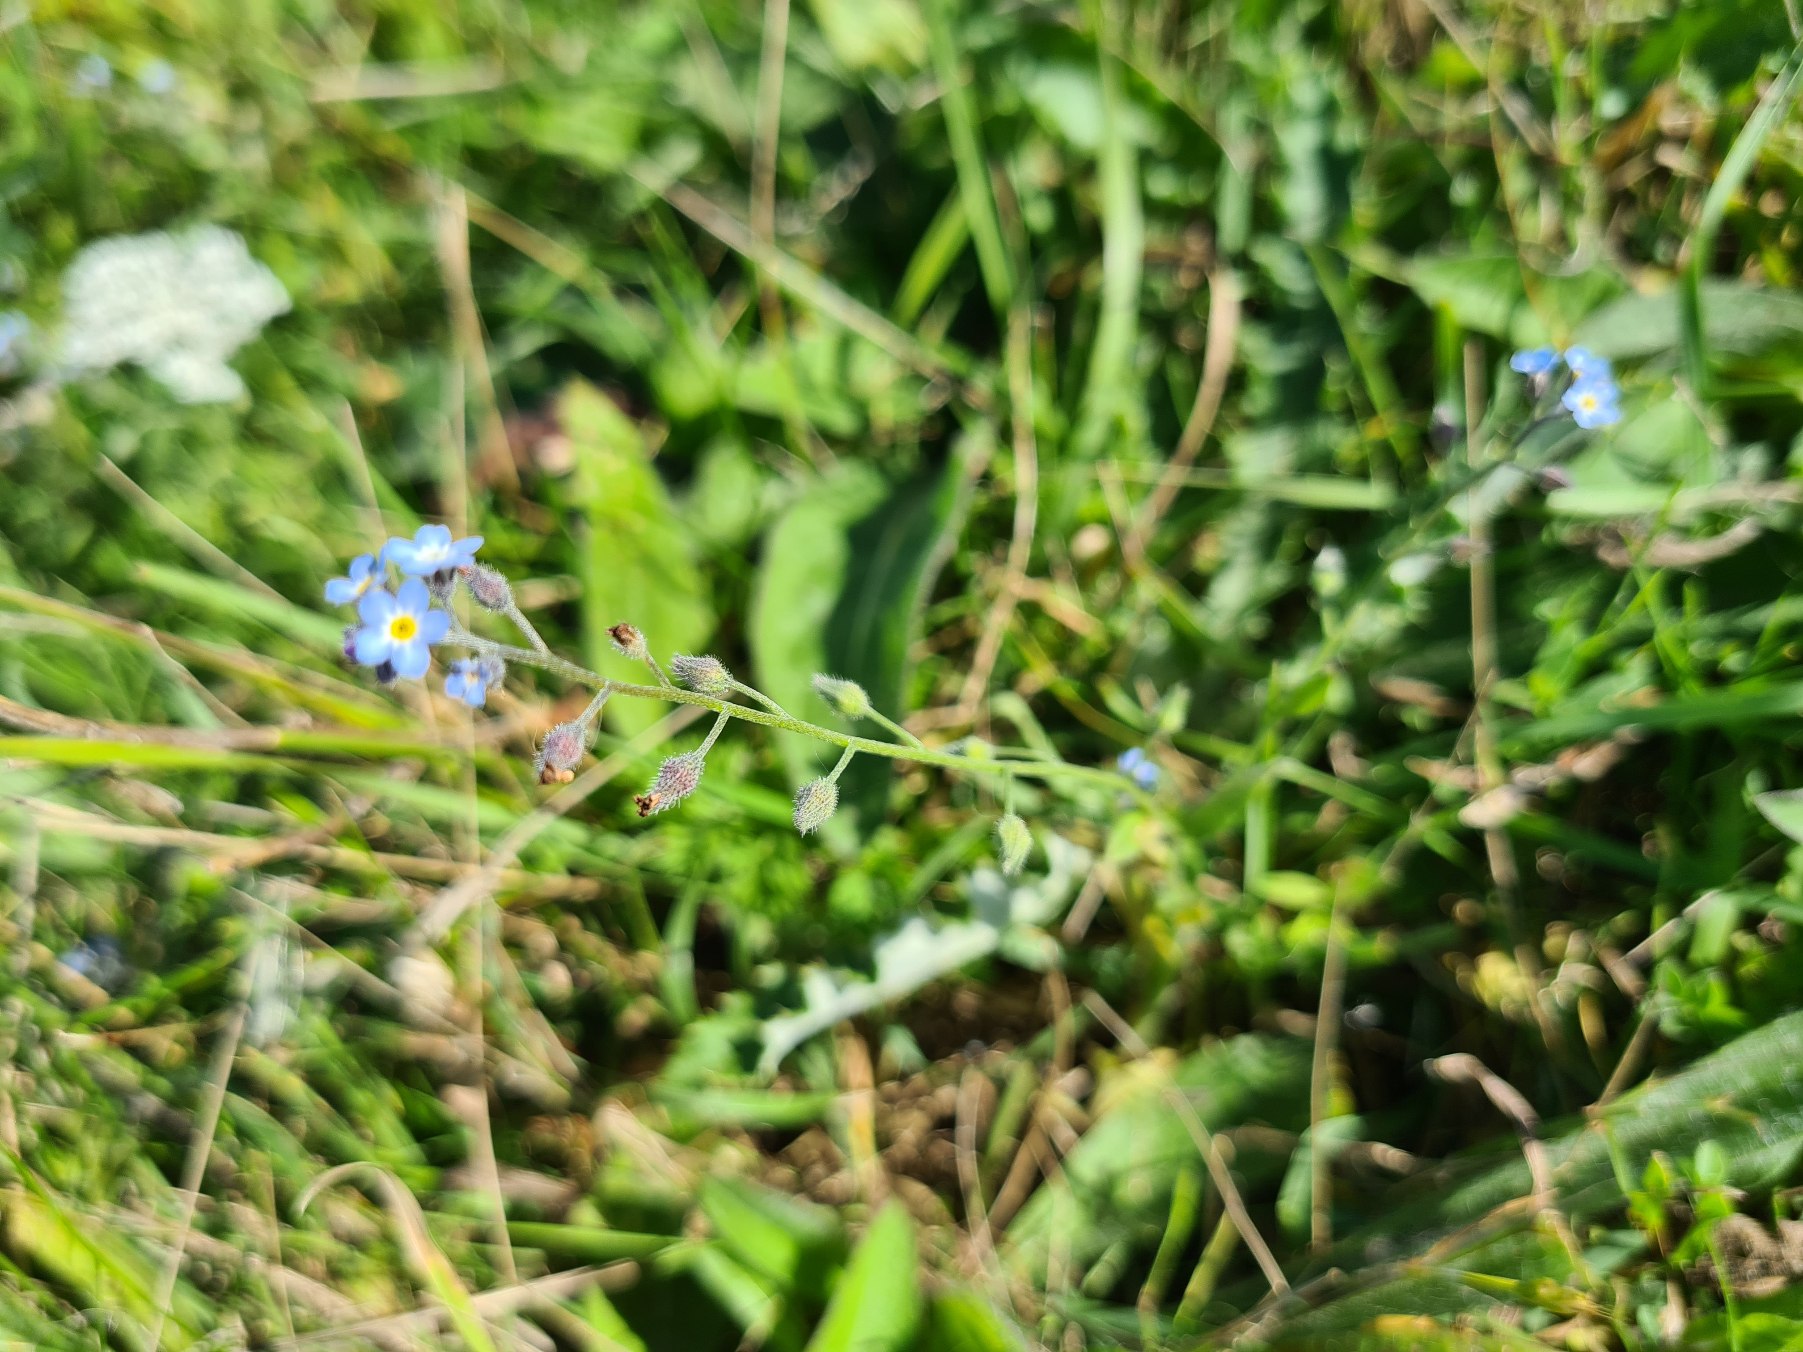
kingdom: Plantae
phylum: Tracheophyta
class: Magnoliopsida
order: Boraginales
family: Boraginaceae
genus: Myosotis
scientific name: Myosotis arvensis
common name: Mark-forglemmigej
